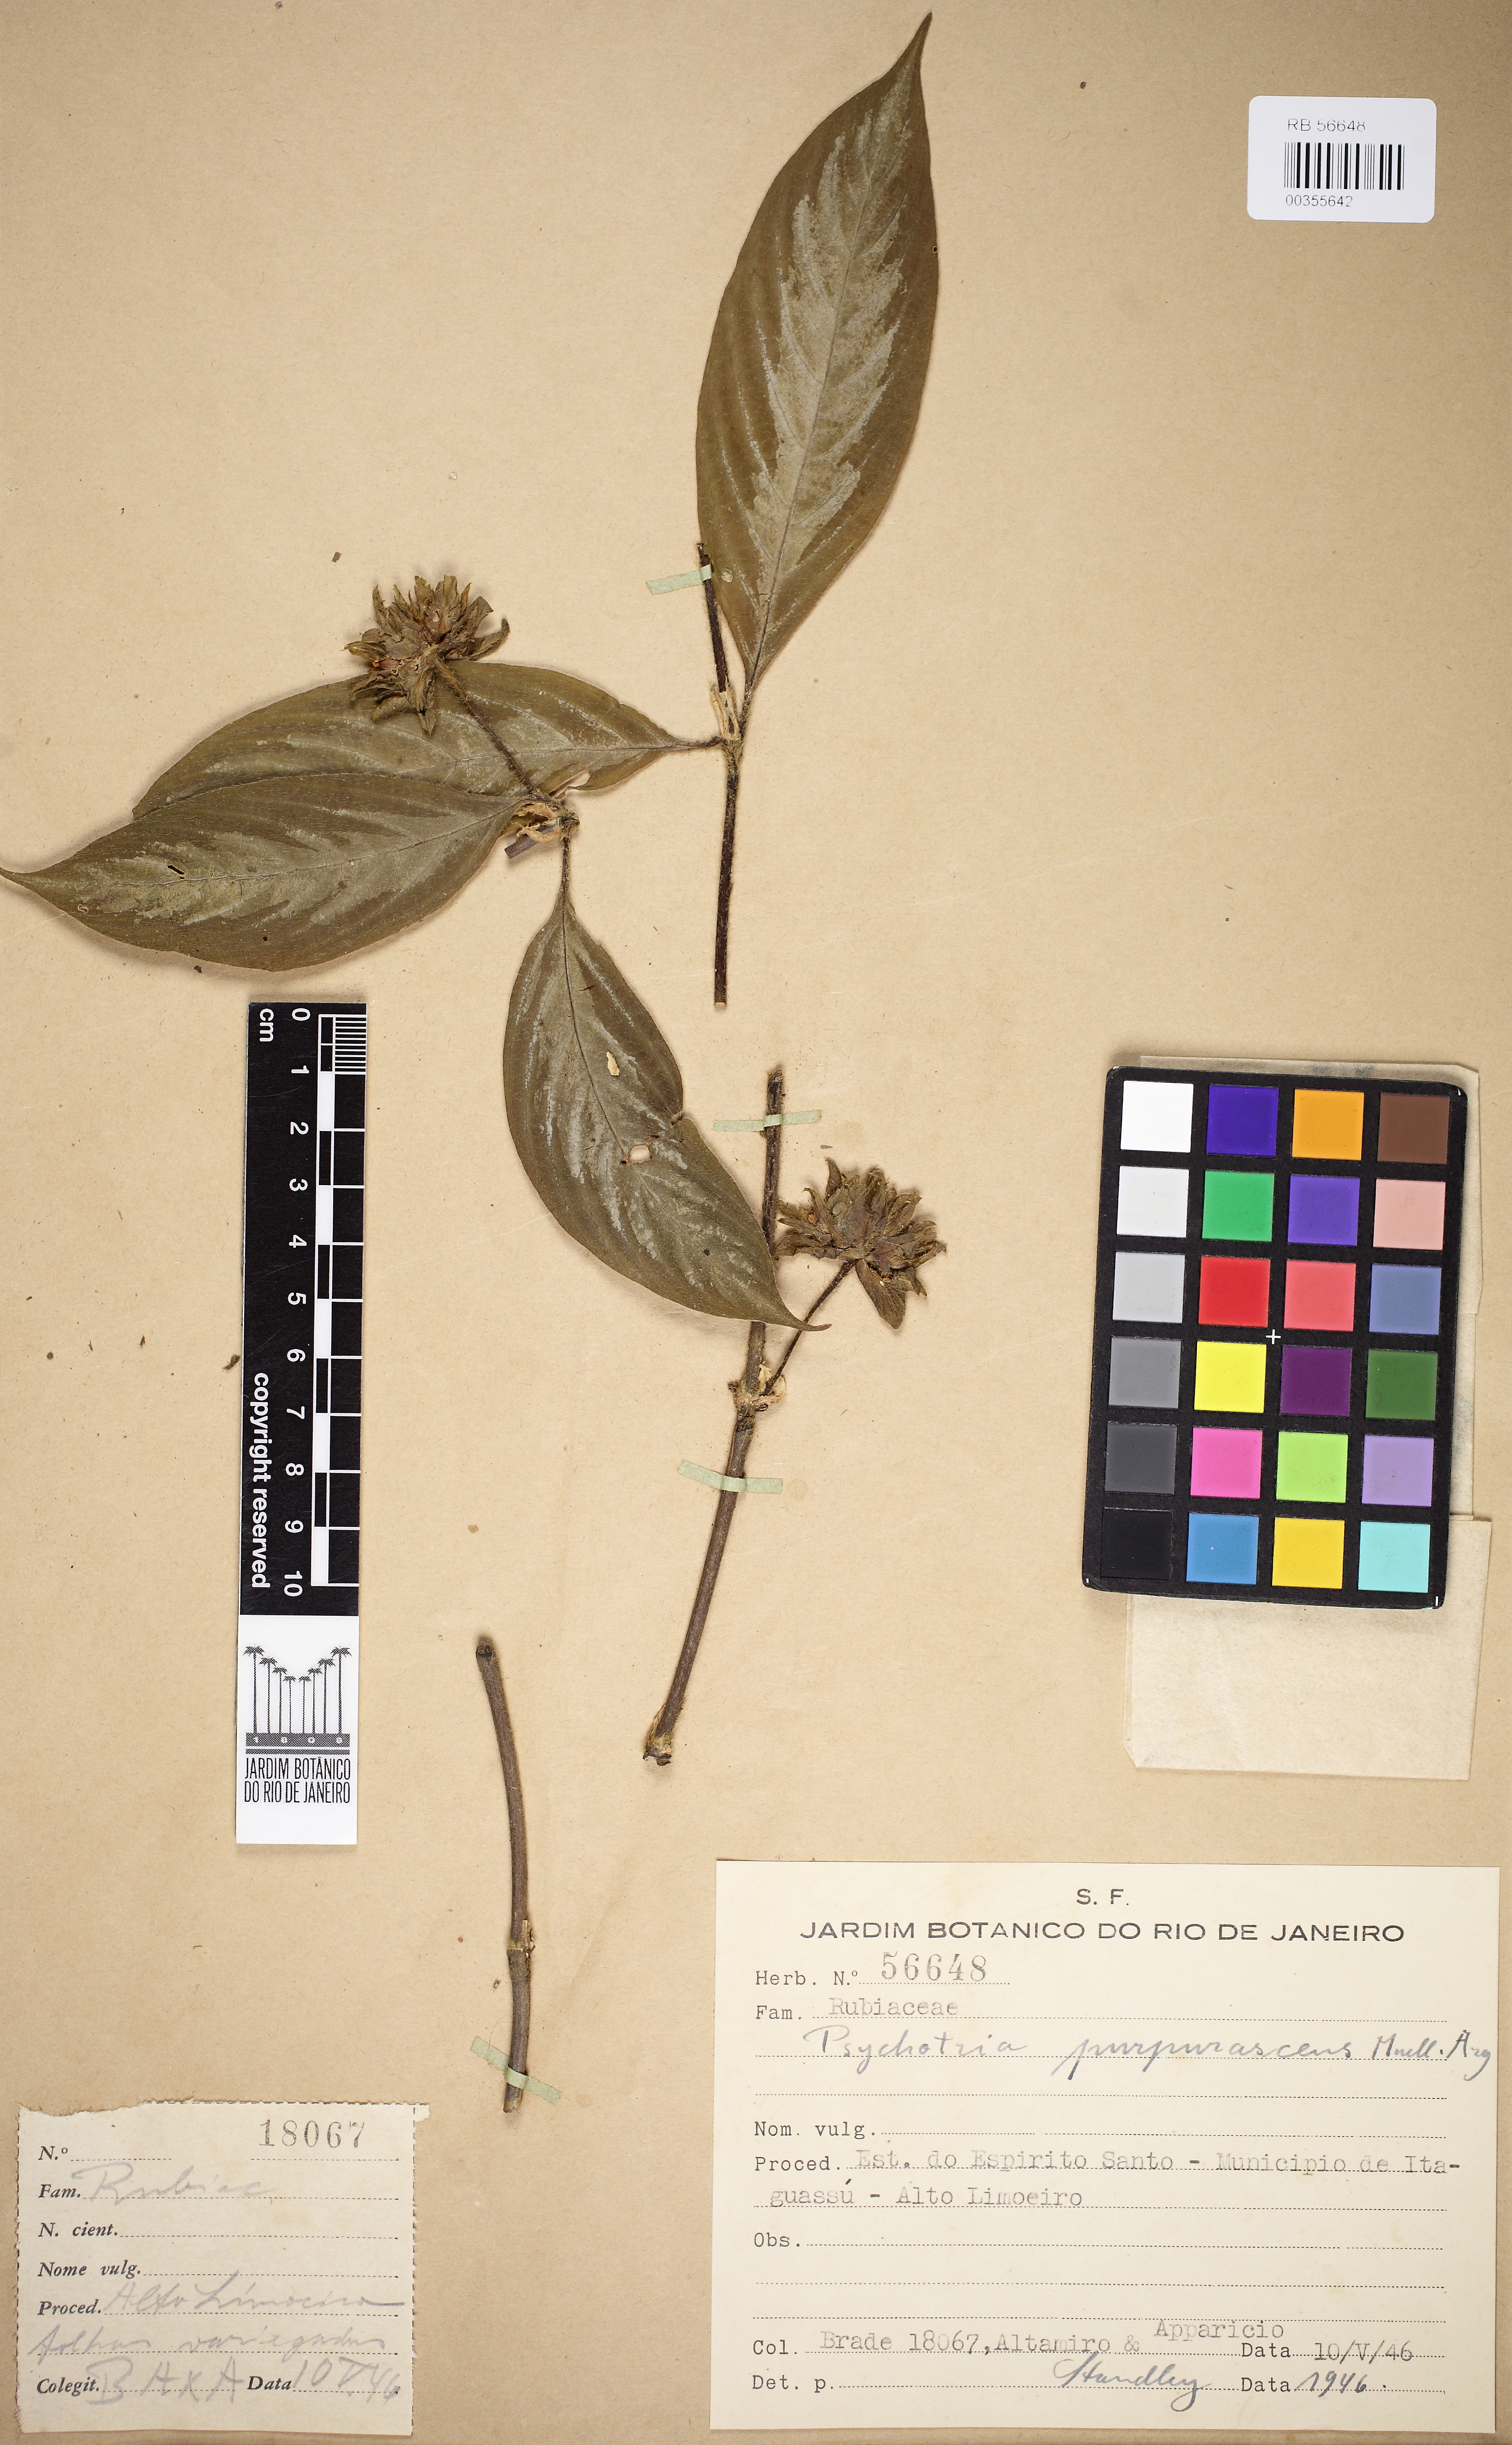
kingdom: Plantae
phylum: Tracheophyta
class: Magnoliopsida
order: Gentianales
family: Rubiaceae
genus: Psychotria
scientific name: Psychotria stachyoides
